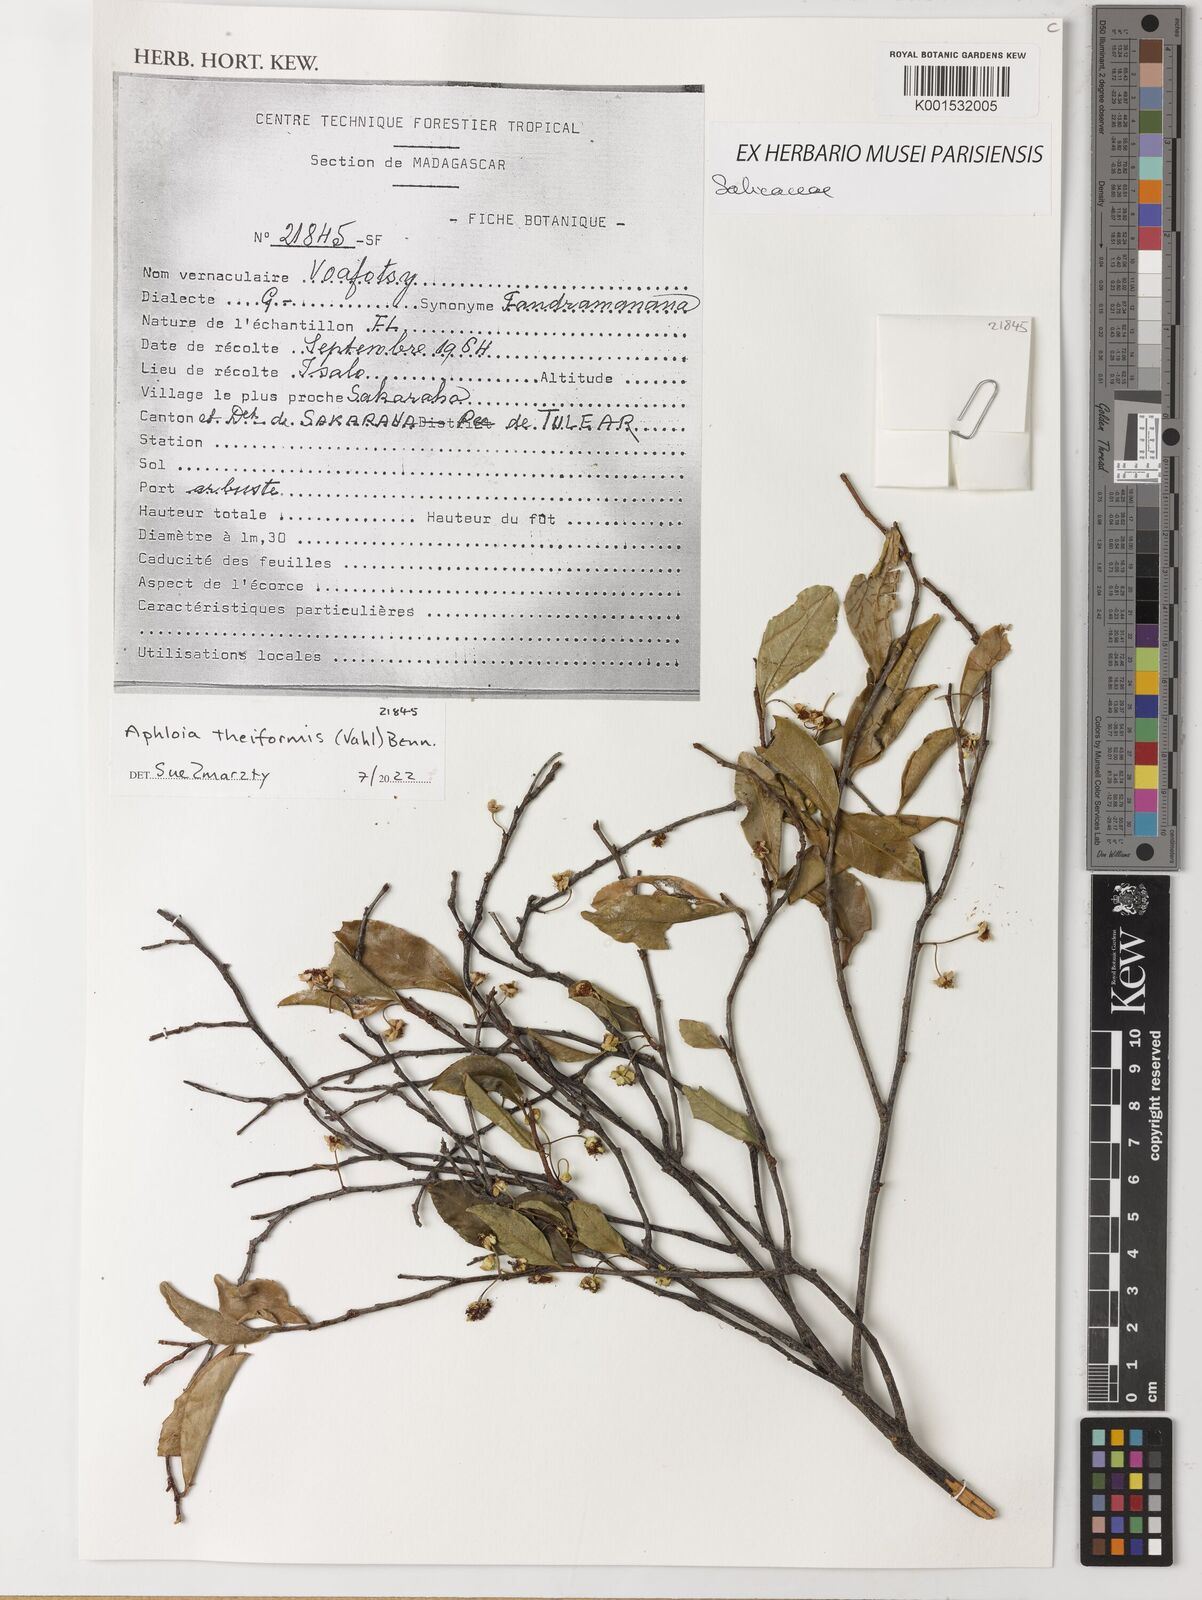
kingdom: Plantae
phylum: Tracheophyta
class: Magnoliopsida
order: Malpighiales
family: Salicaceae
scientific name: Salicaceae
